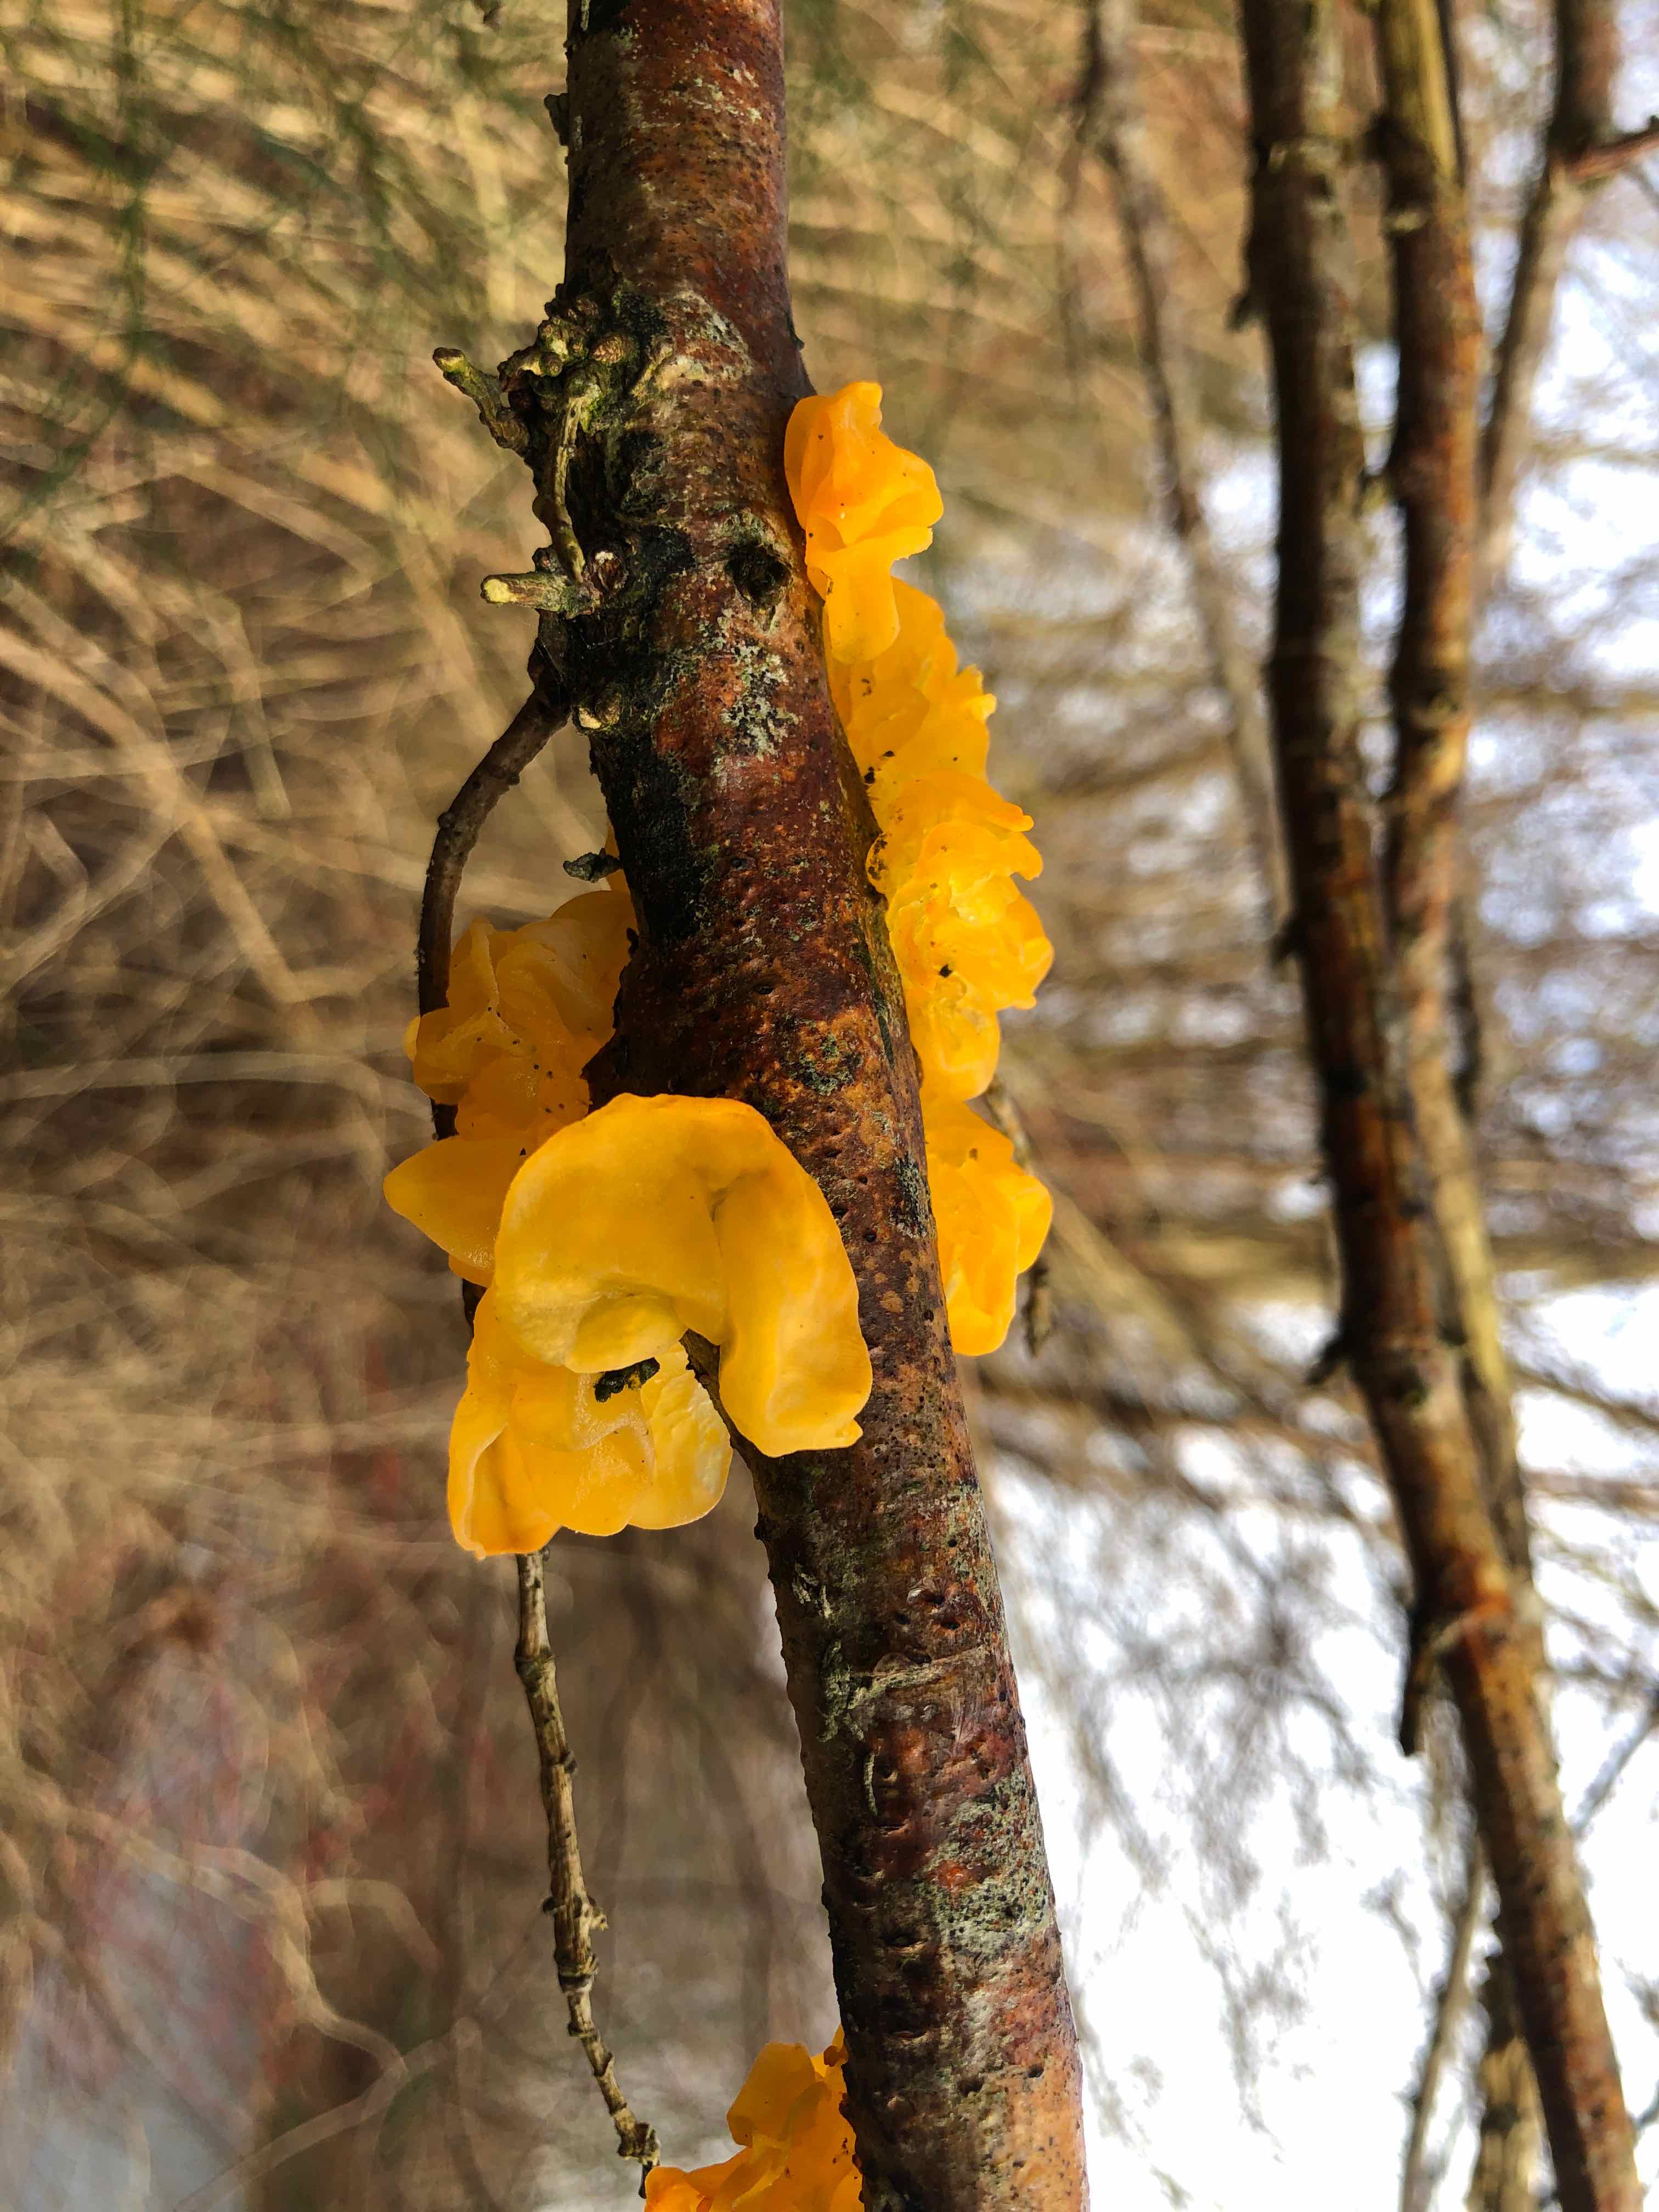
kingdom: Fungi
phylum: Basidiomycota
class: Tremellomycetes
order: Tremellales
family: Tremellaceae
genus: Tremella
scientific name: Tremella mesenterica
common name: gul bævresvamp
